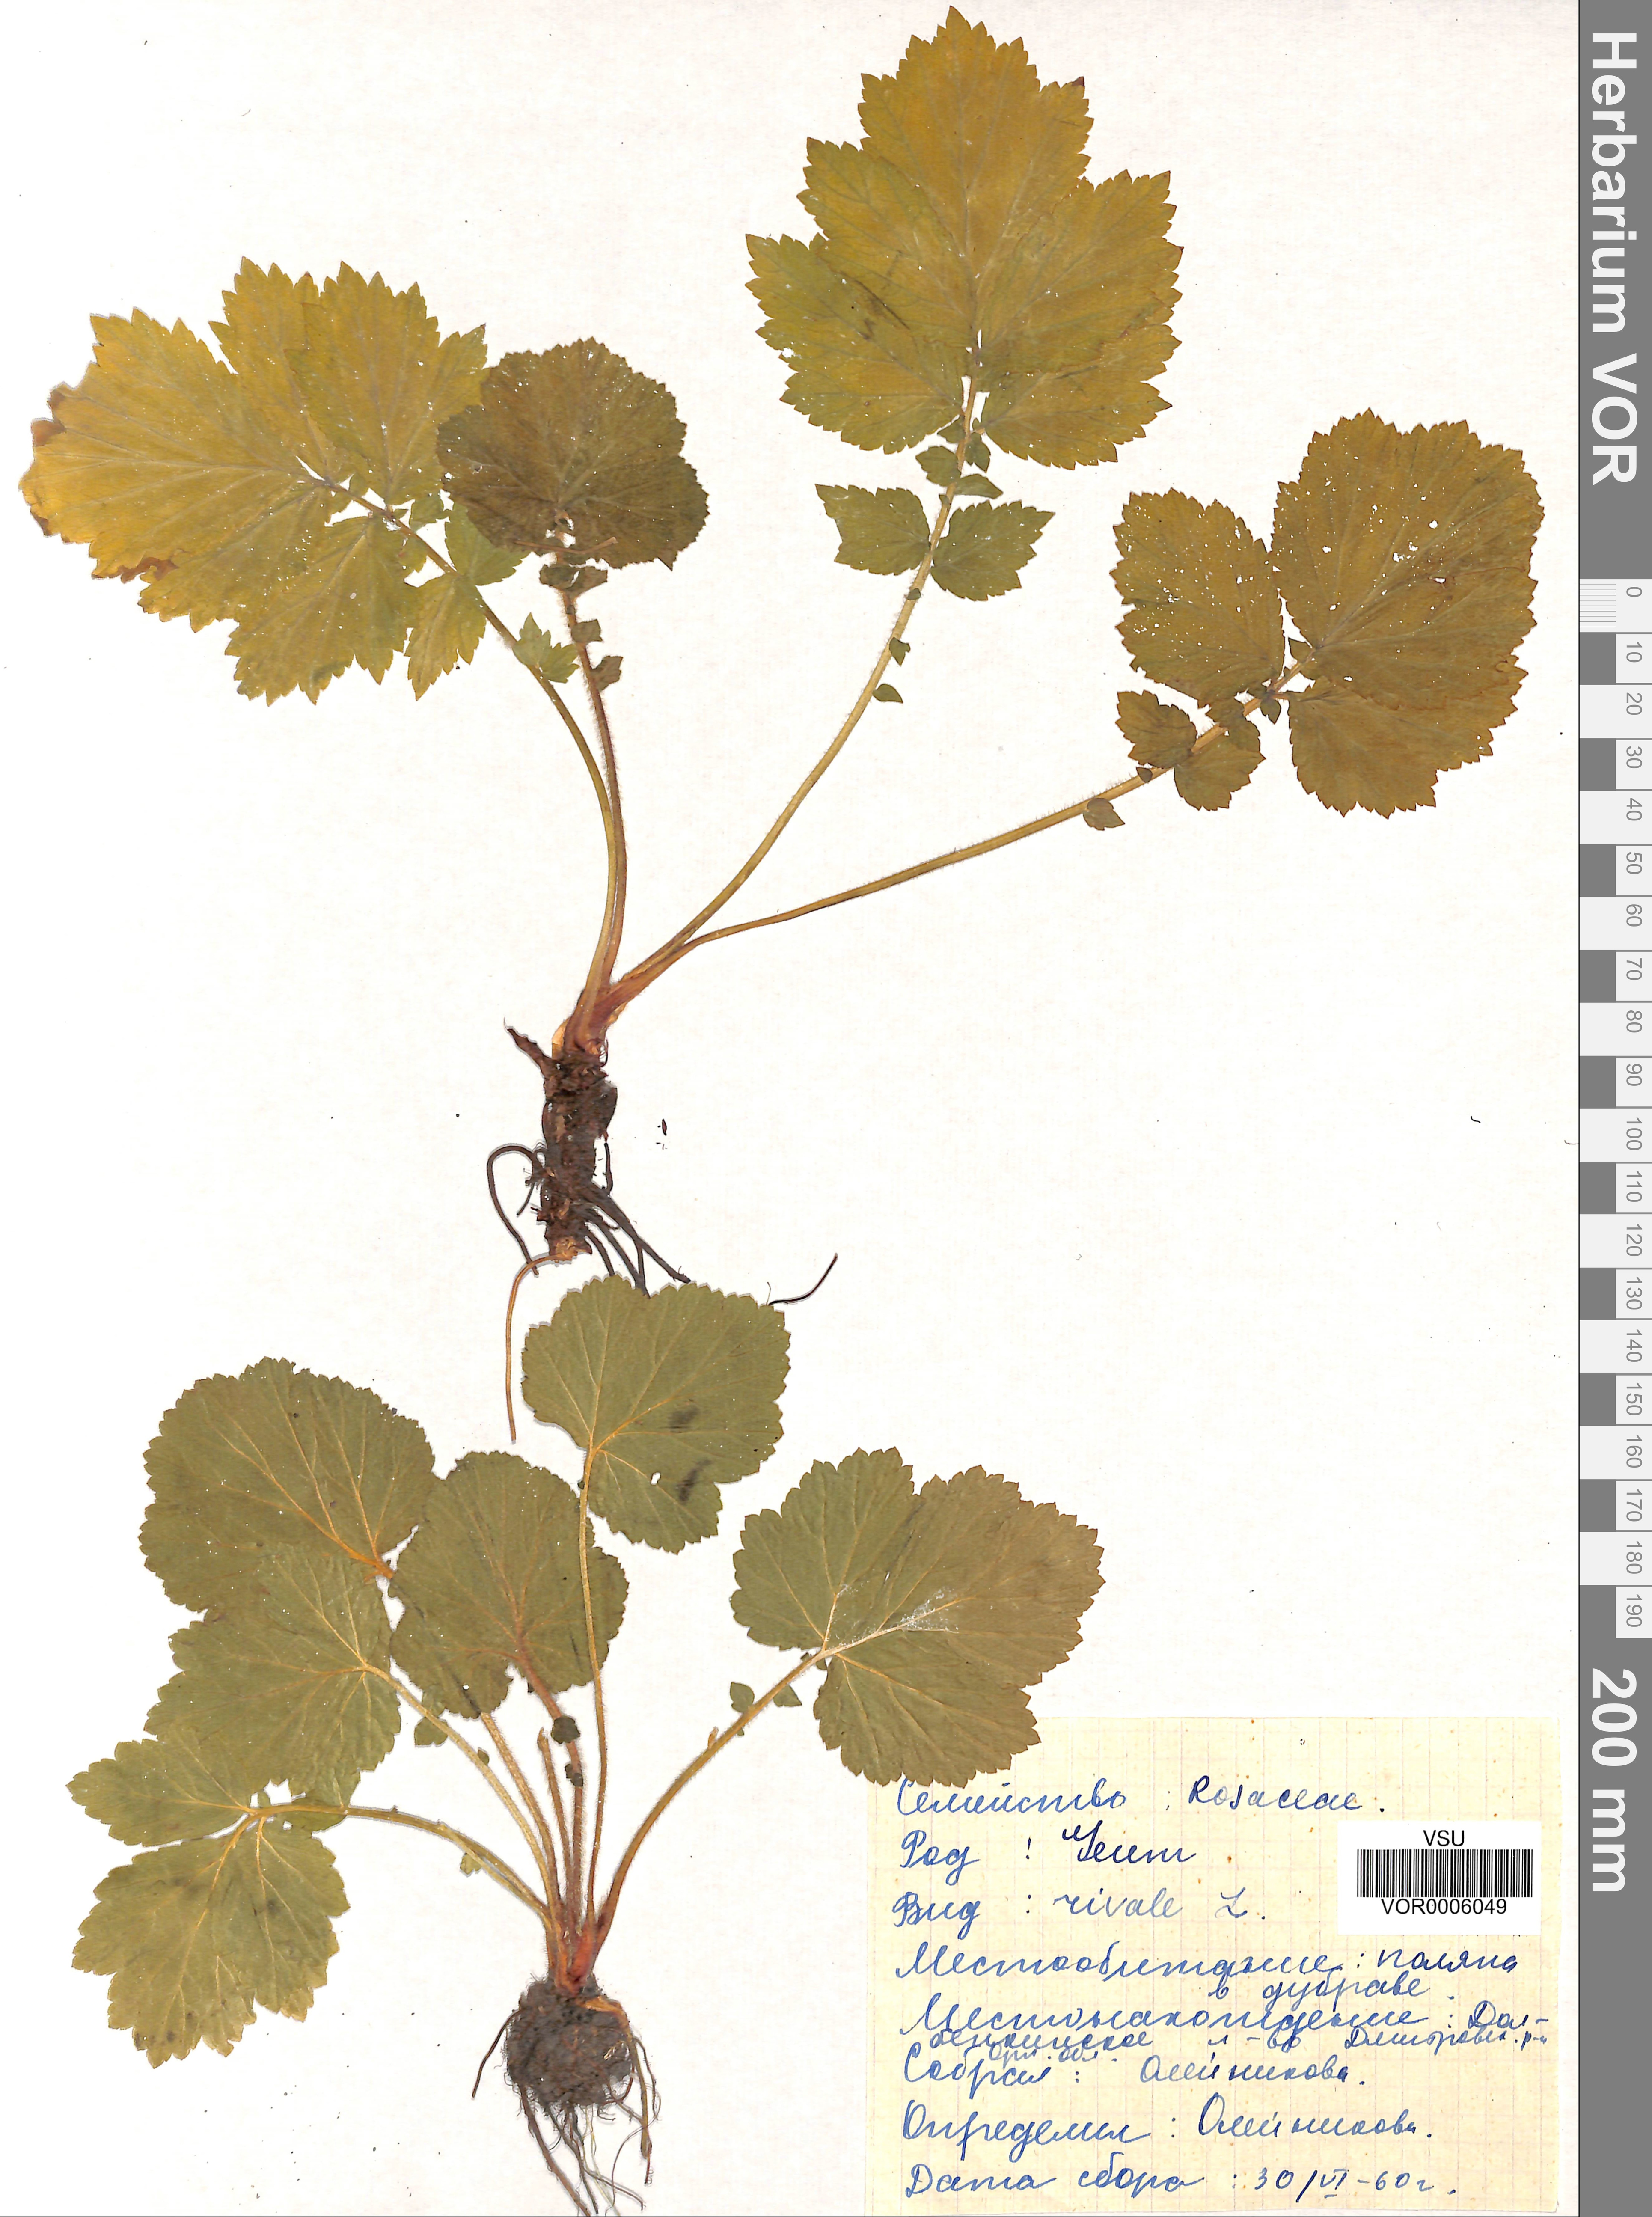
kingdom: Plantae
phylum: Tracheophyta
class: Magnoliopsida
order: Rosales
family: Rosaceae
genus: Geum
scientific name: Geum rivale
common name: Water avens
